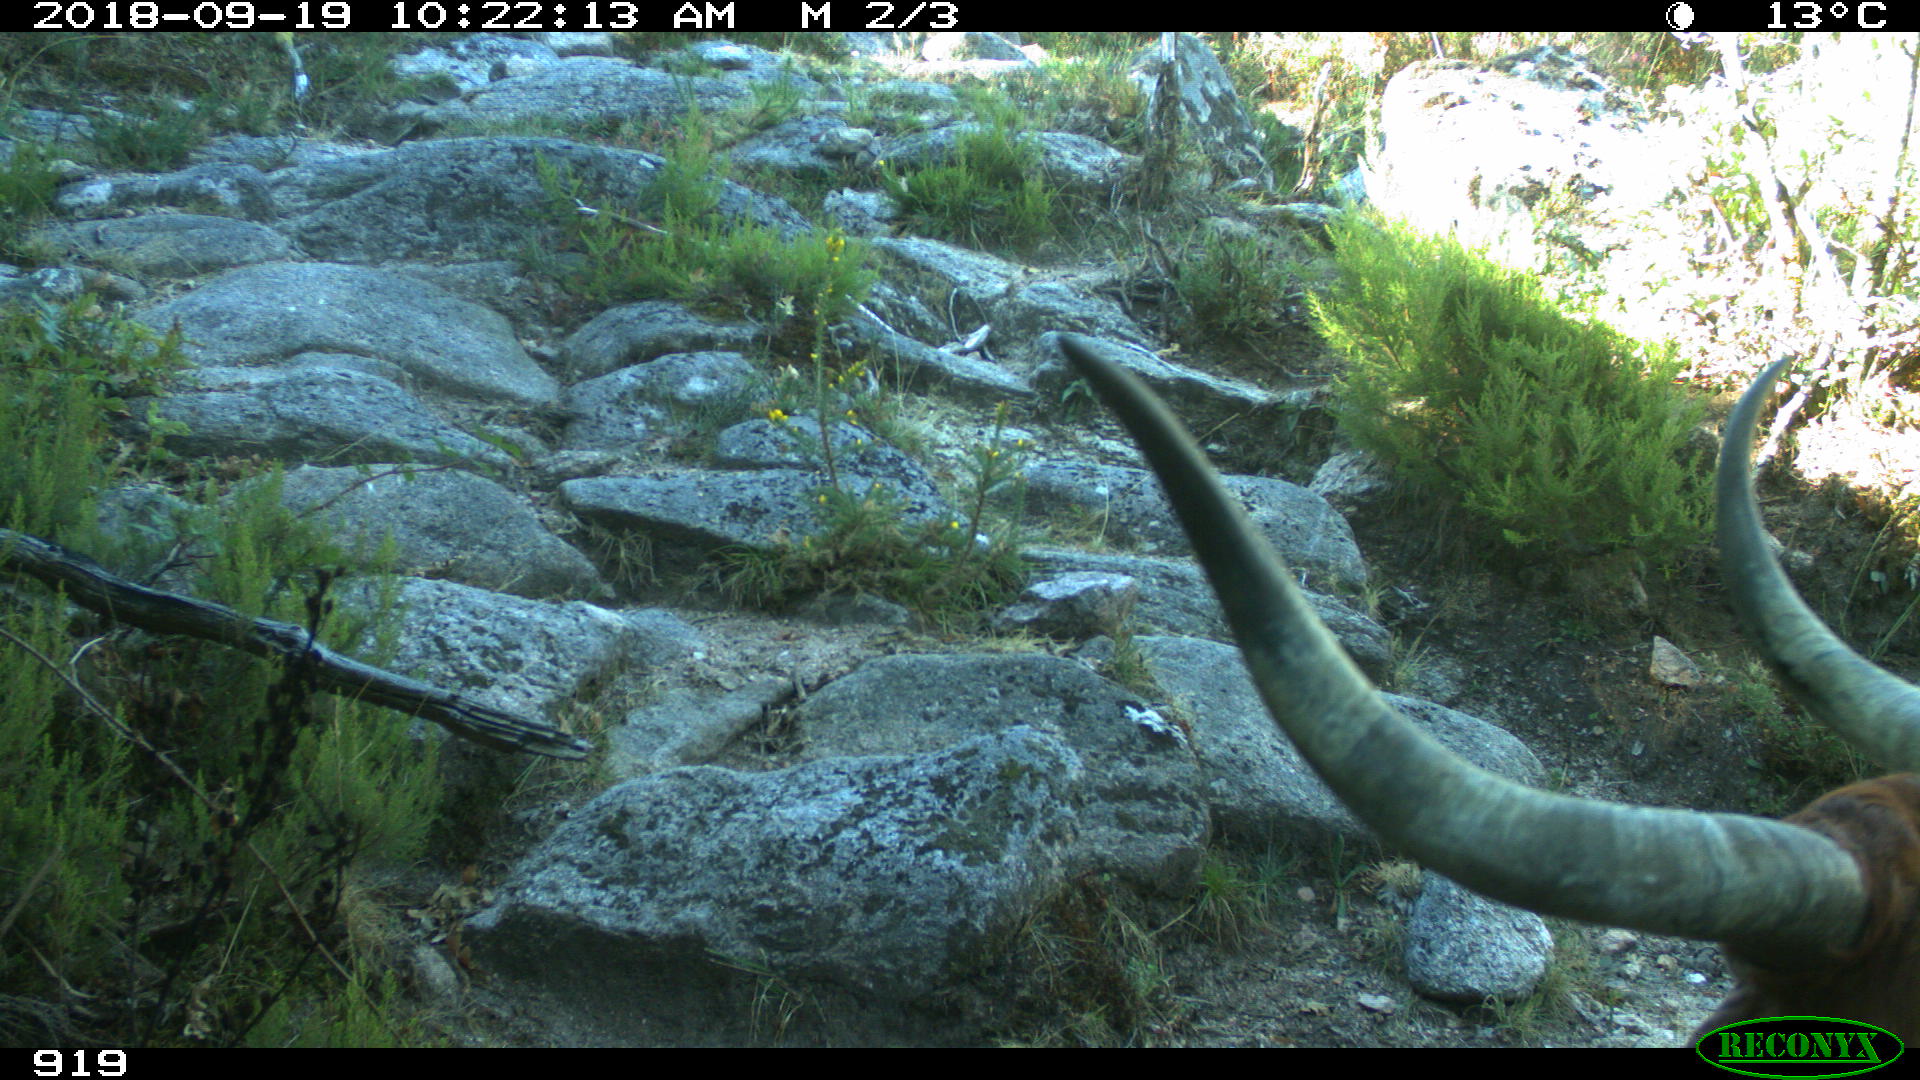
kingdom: Animalia
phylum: Chordata
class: Mammalia
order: Artiodactyla
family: Bovidae
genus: Bos
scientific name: Bos taurus
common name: Domesticated cattle
